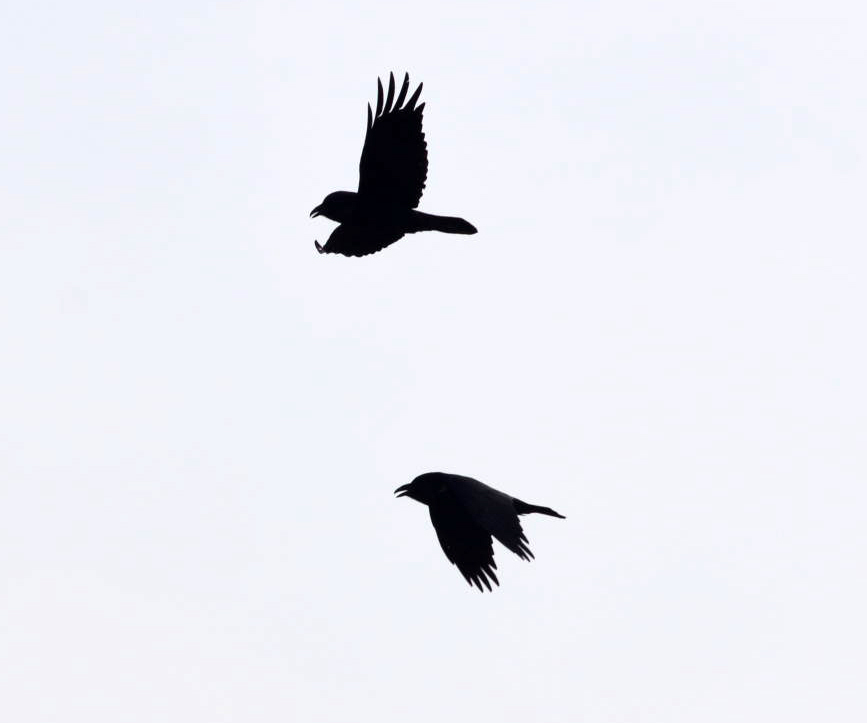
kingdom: Animalia
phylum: Chordata
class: Aves
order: Passeriformes
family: Corvidae
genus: Corvus
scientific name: Corvus corax
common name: Common raven
